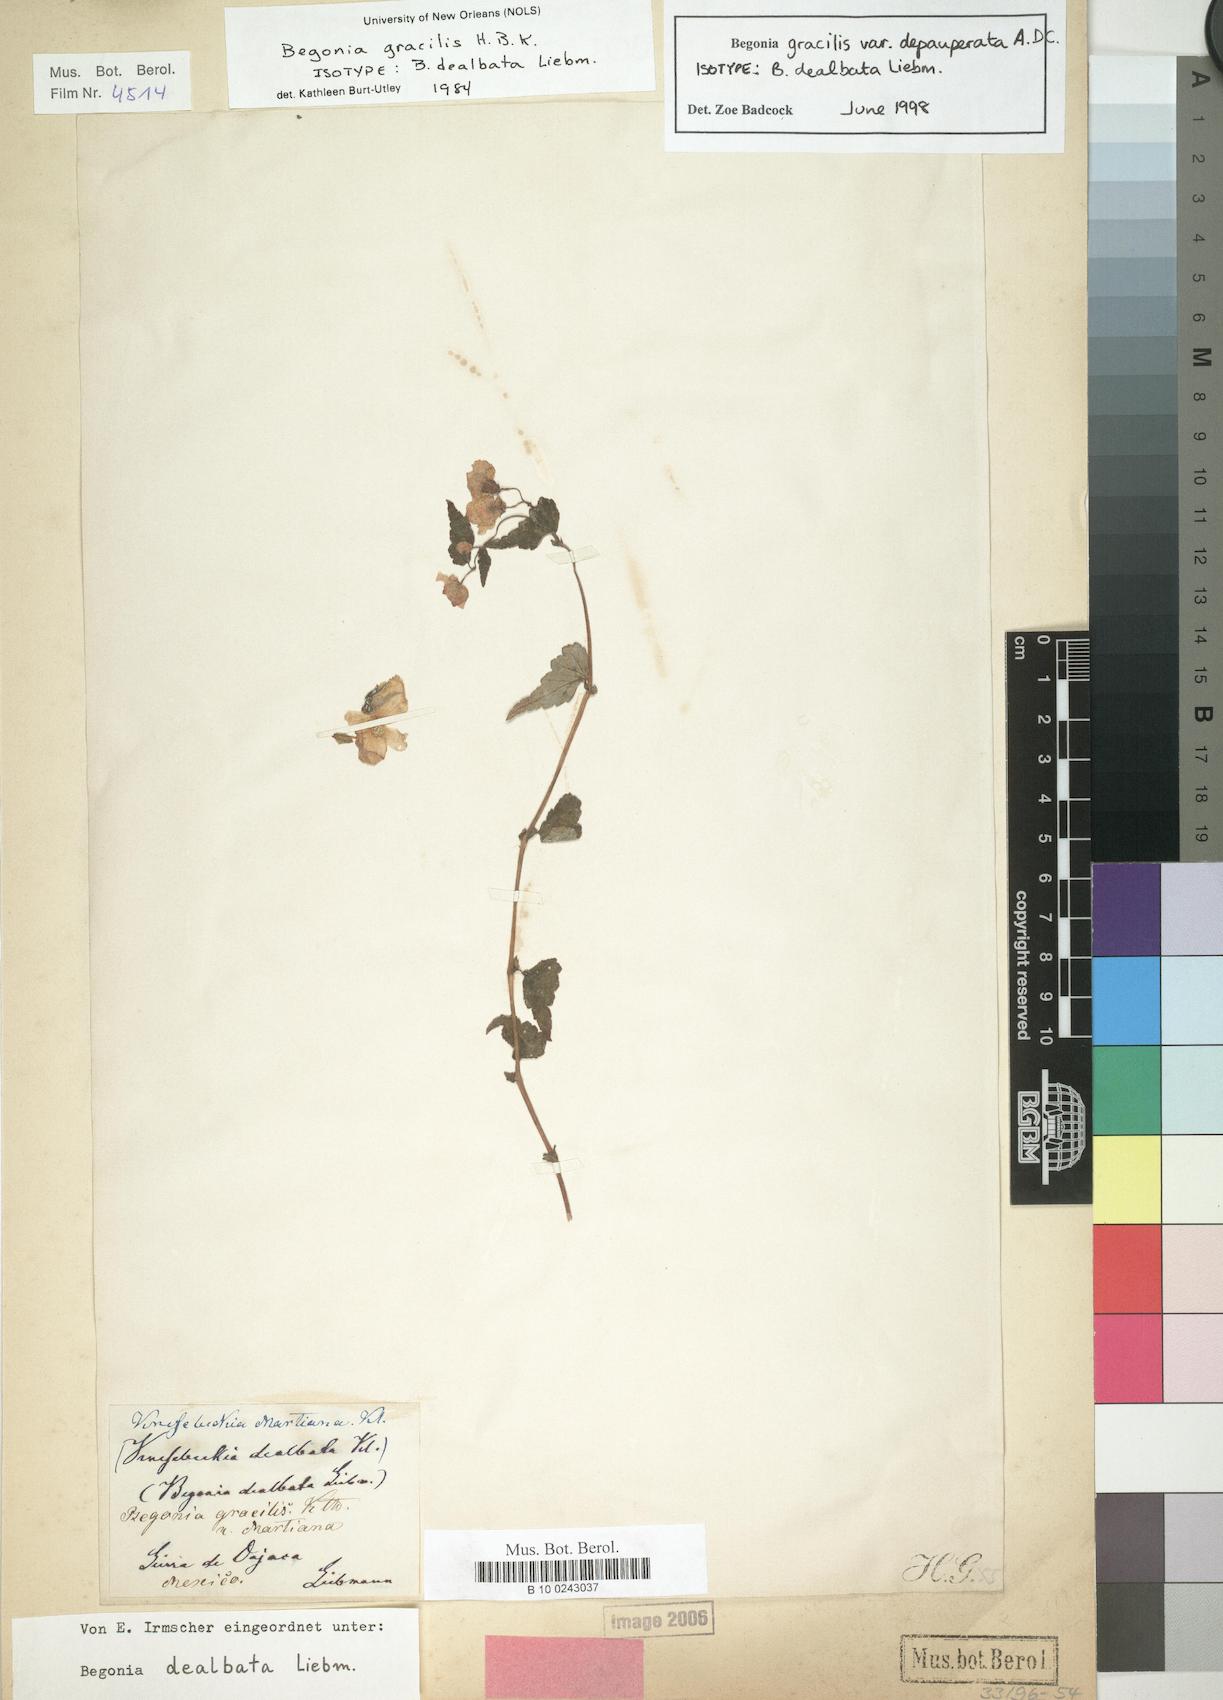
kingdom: Plantae
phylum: Tracheophyta
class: Magnoliopsida
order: Cucurbitales
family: Begoniaceae
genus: Begonia
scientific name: Begonia gracilis
